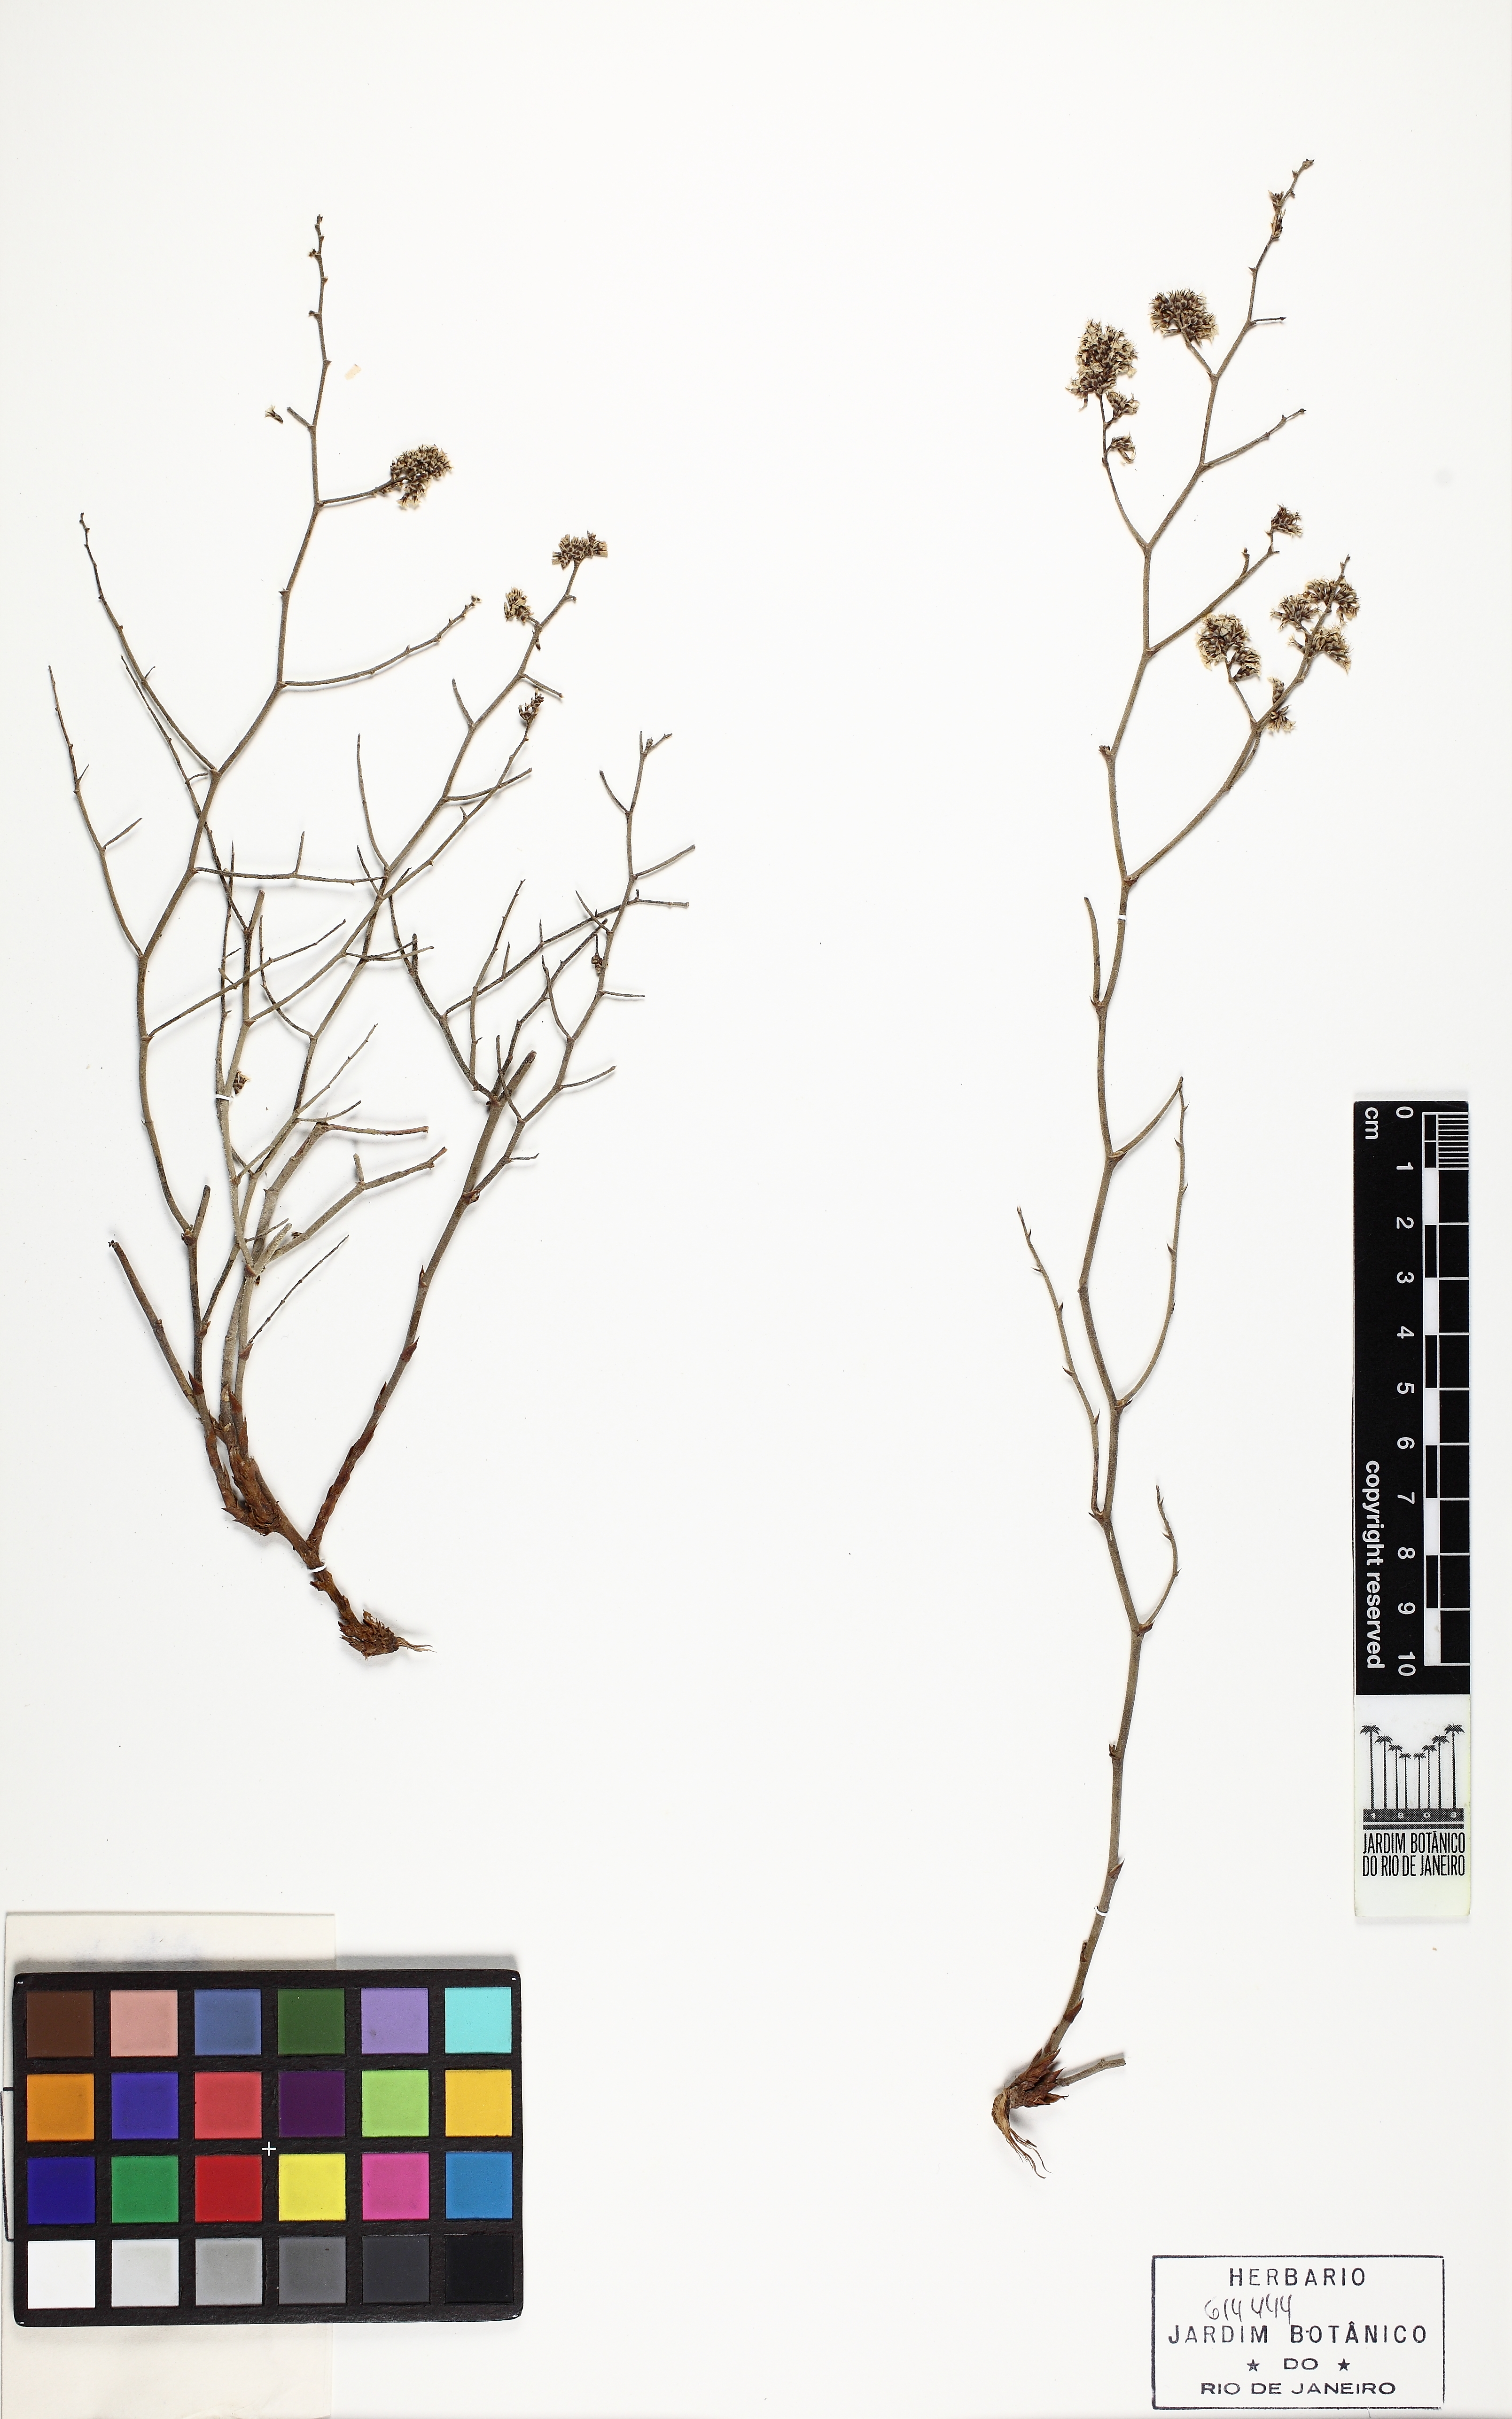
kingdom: Plantae
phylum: Tracheophyta
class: Magnoliopsida
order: Caryophyllales
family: Plumbaginaceae
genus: Limonium
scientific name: Limonium pruinosum
